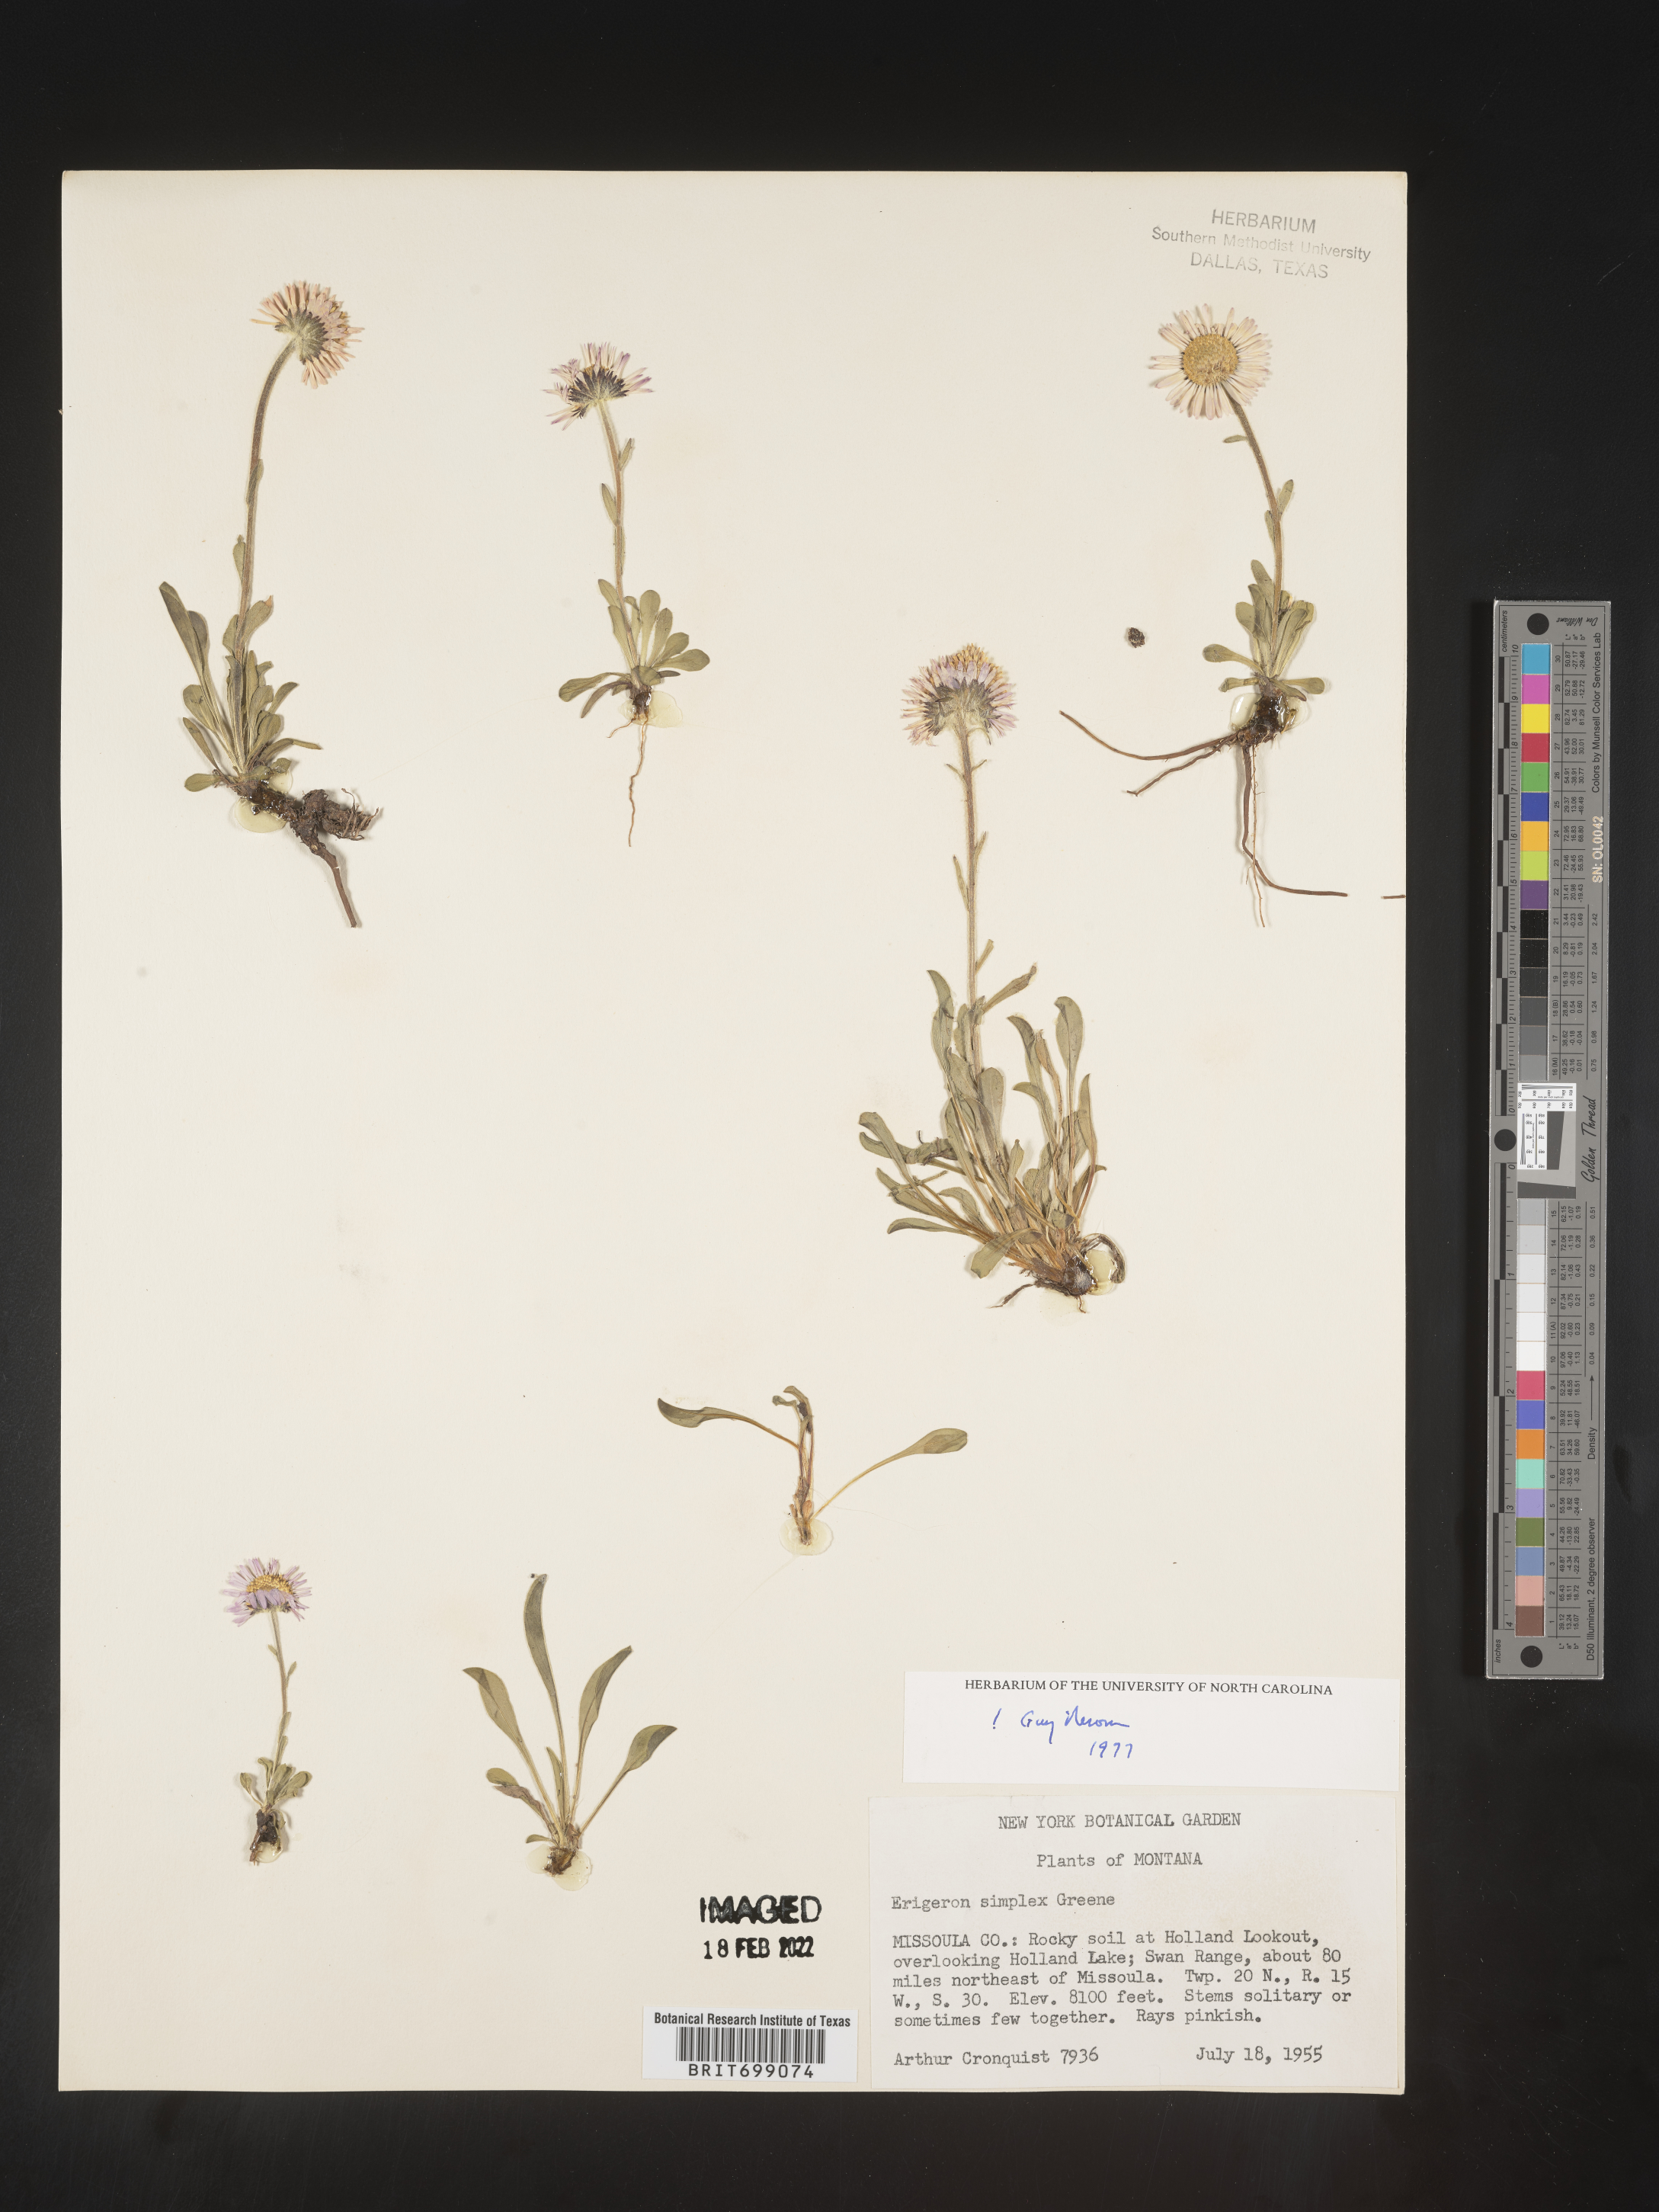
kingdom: Plantae
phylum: Tracheophyta
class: Magnoliopsida
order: Asterales
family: Asteraceae
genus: Erigeron
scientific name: Erigeron caucasicus
